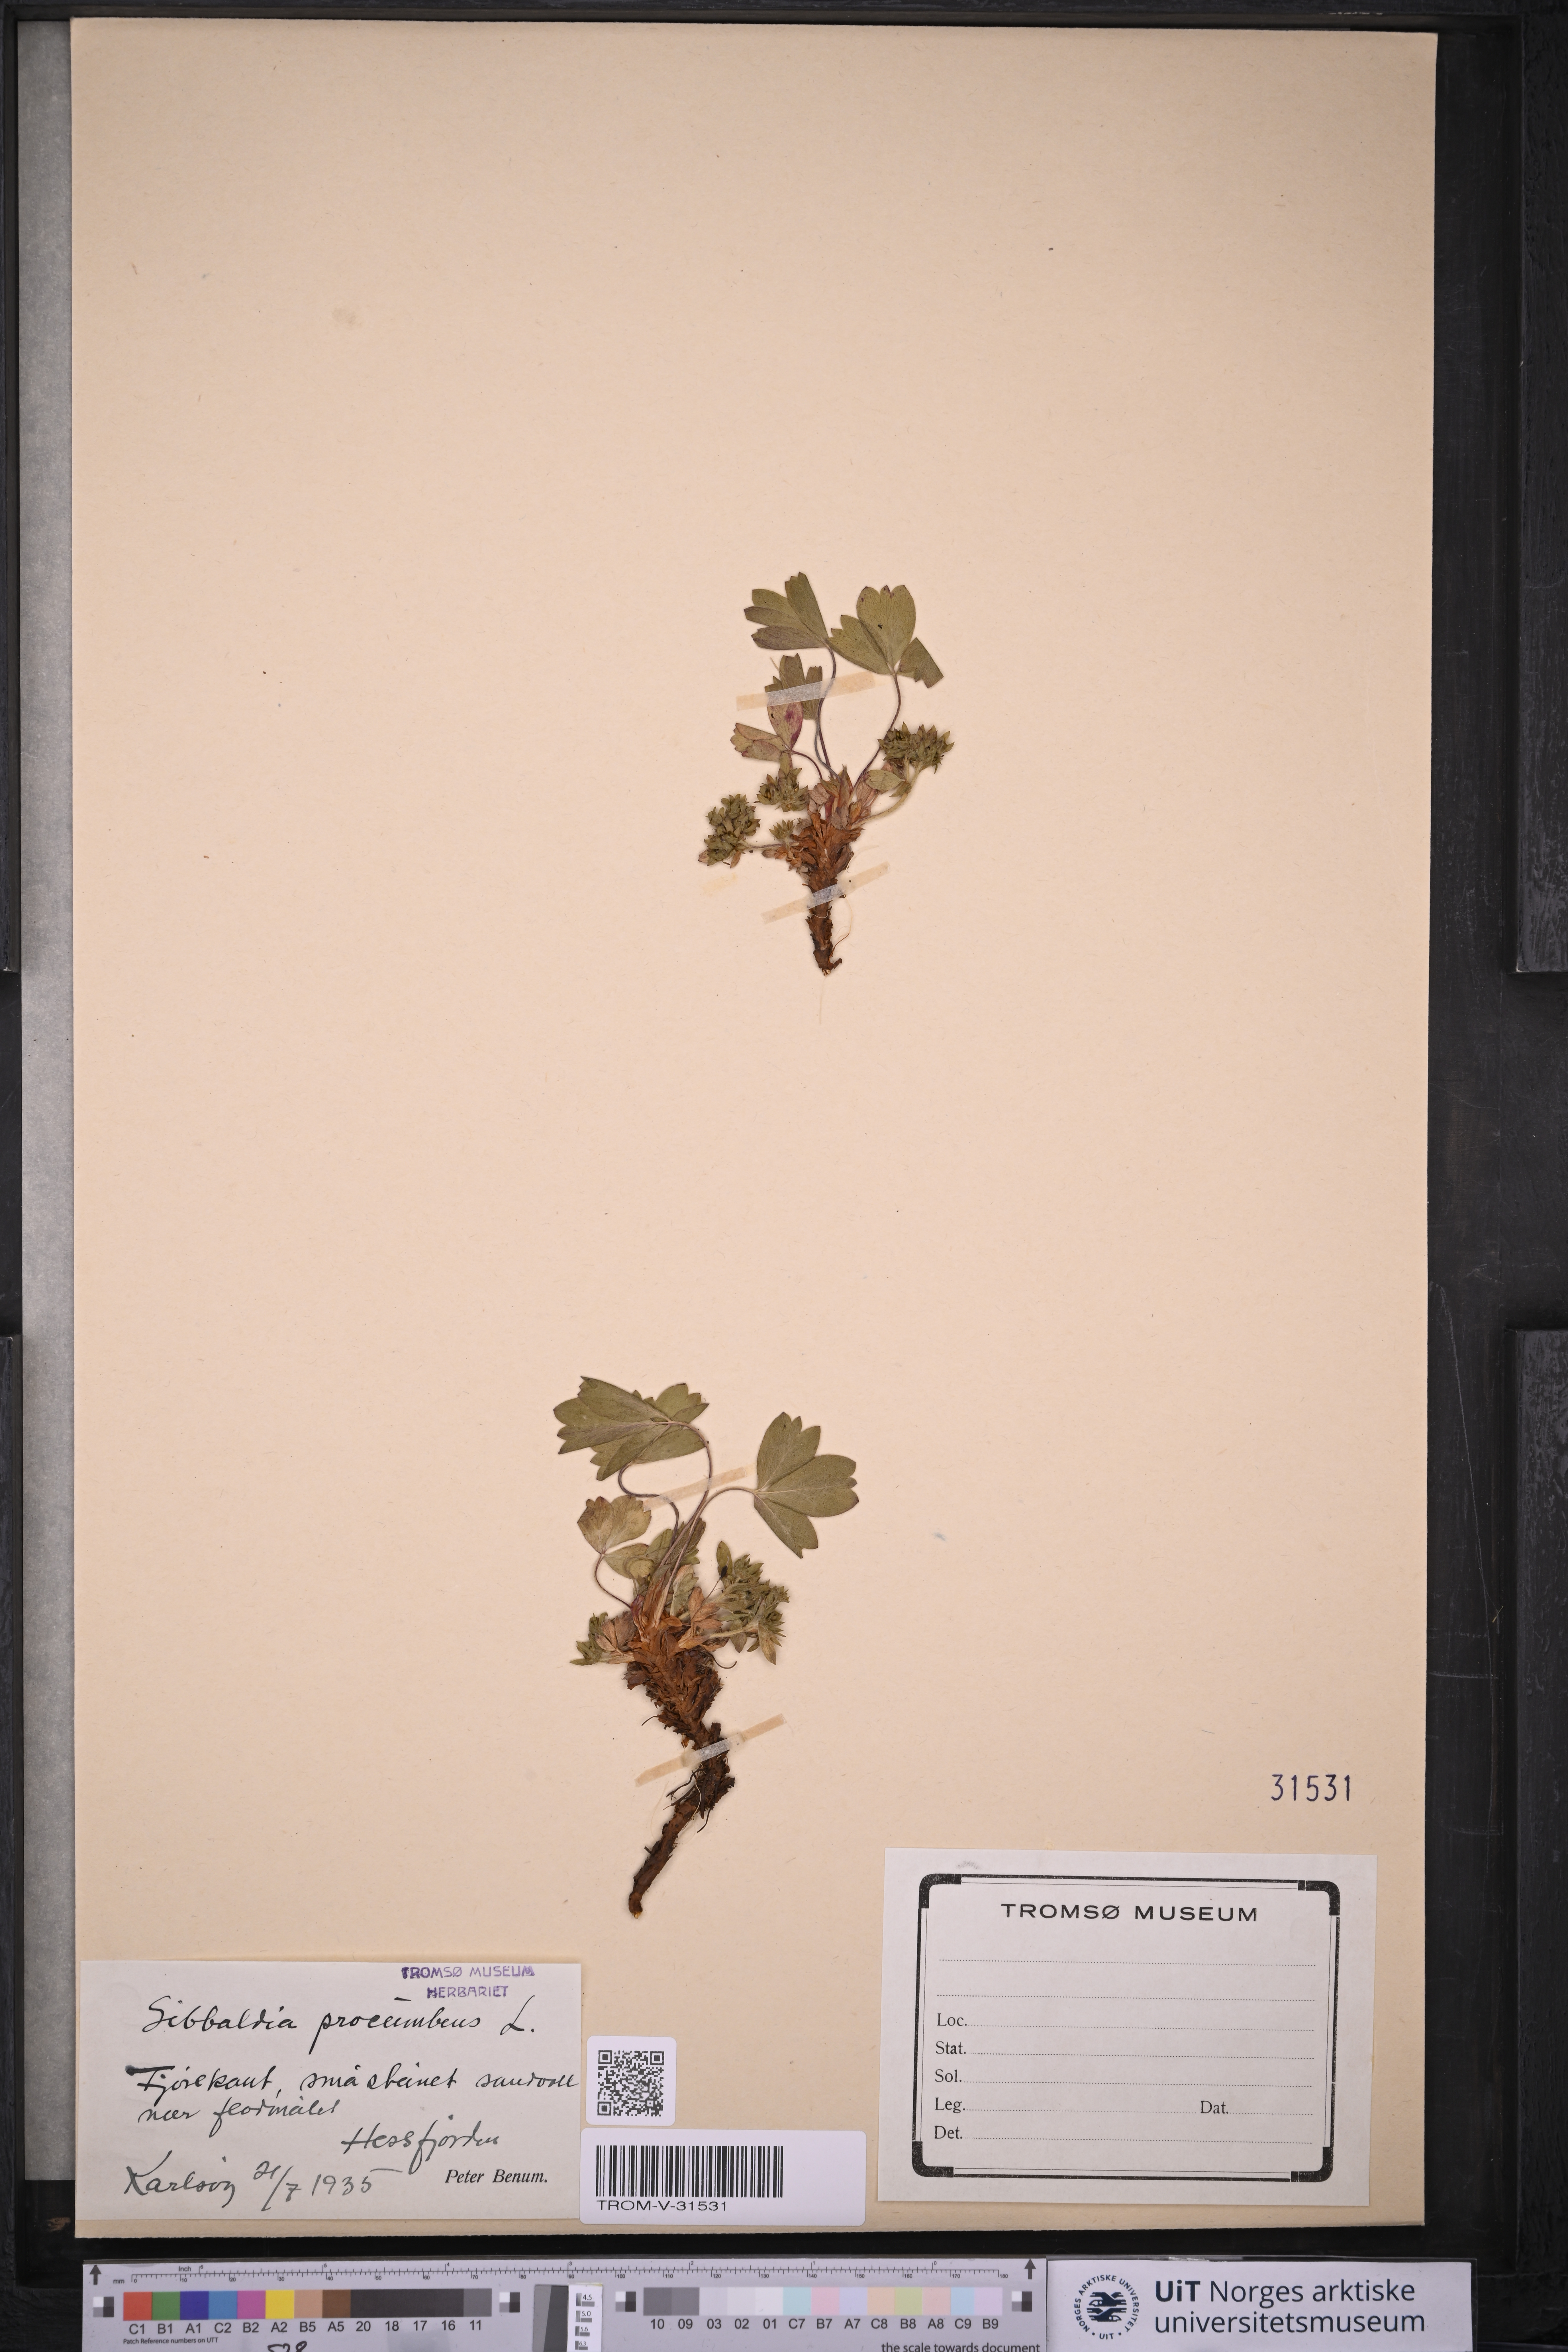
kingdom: Plantae
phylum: Tracheophyta
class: Magnoliopsida
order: Rosales
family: Rosaceae
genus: Sibbaldia
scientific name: Sibbaldia procumbens
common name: Creeping sibbaldia
